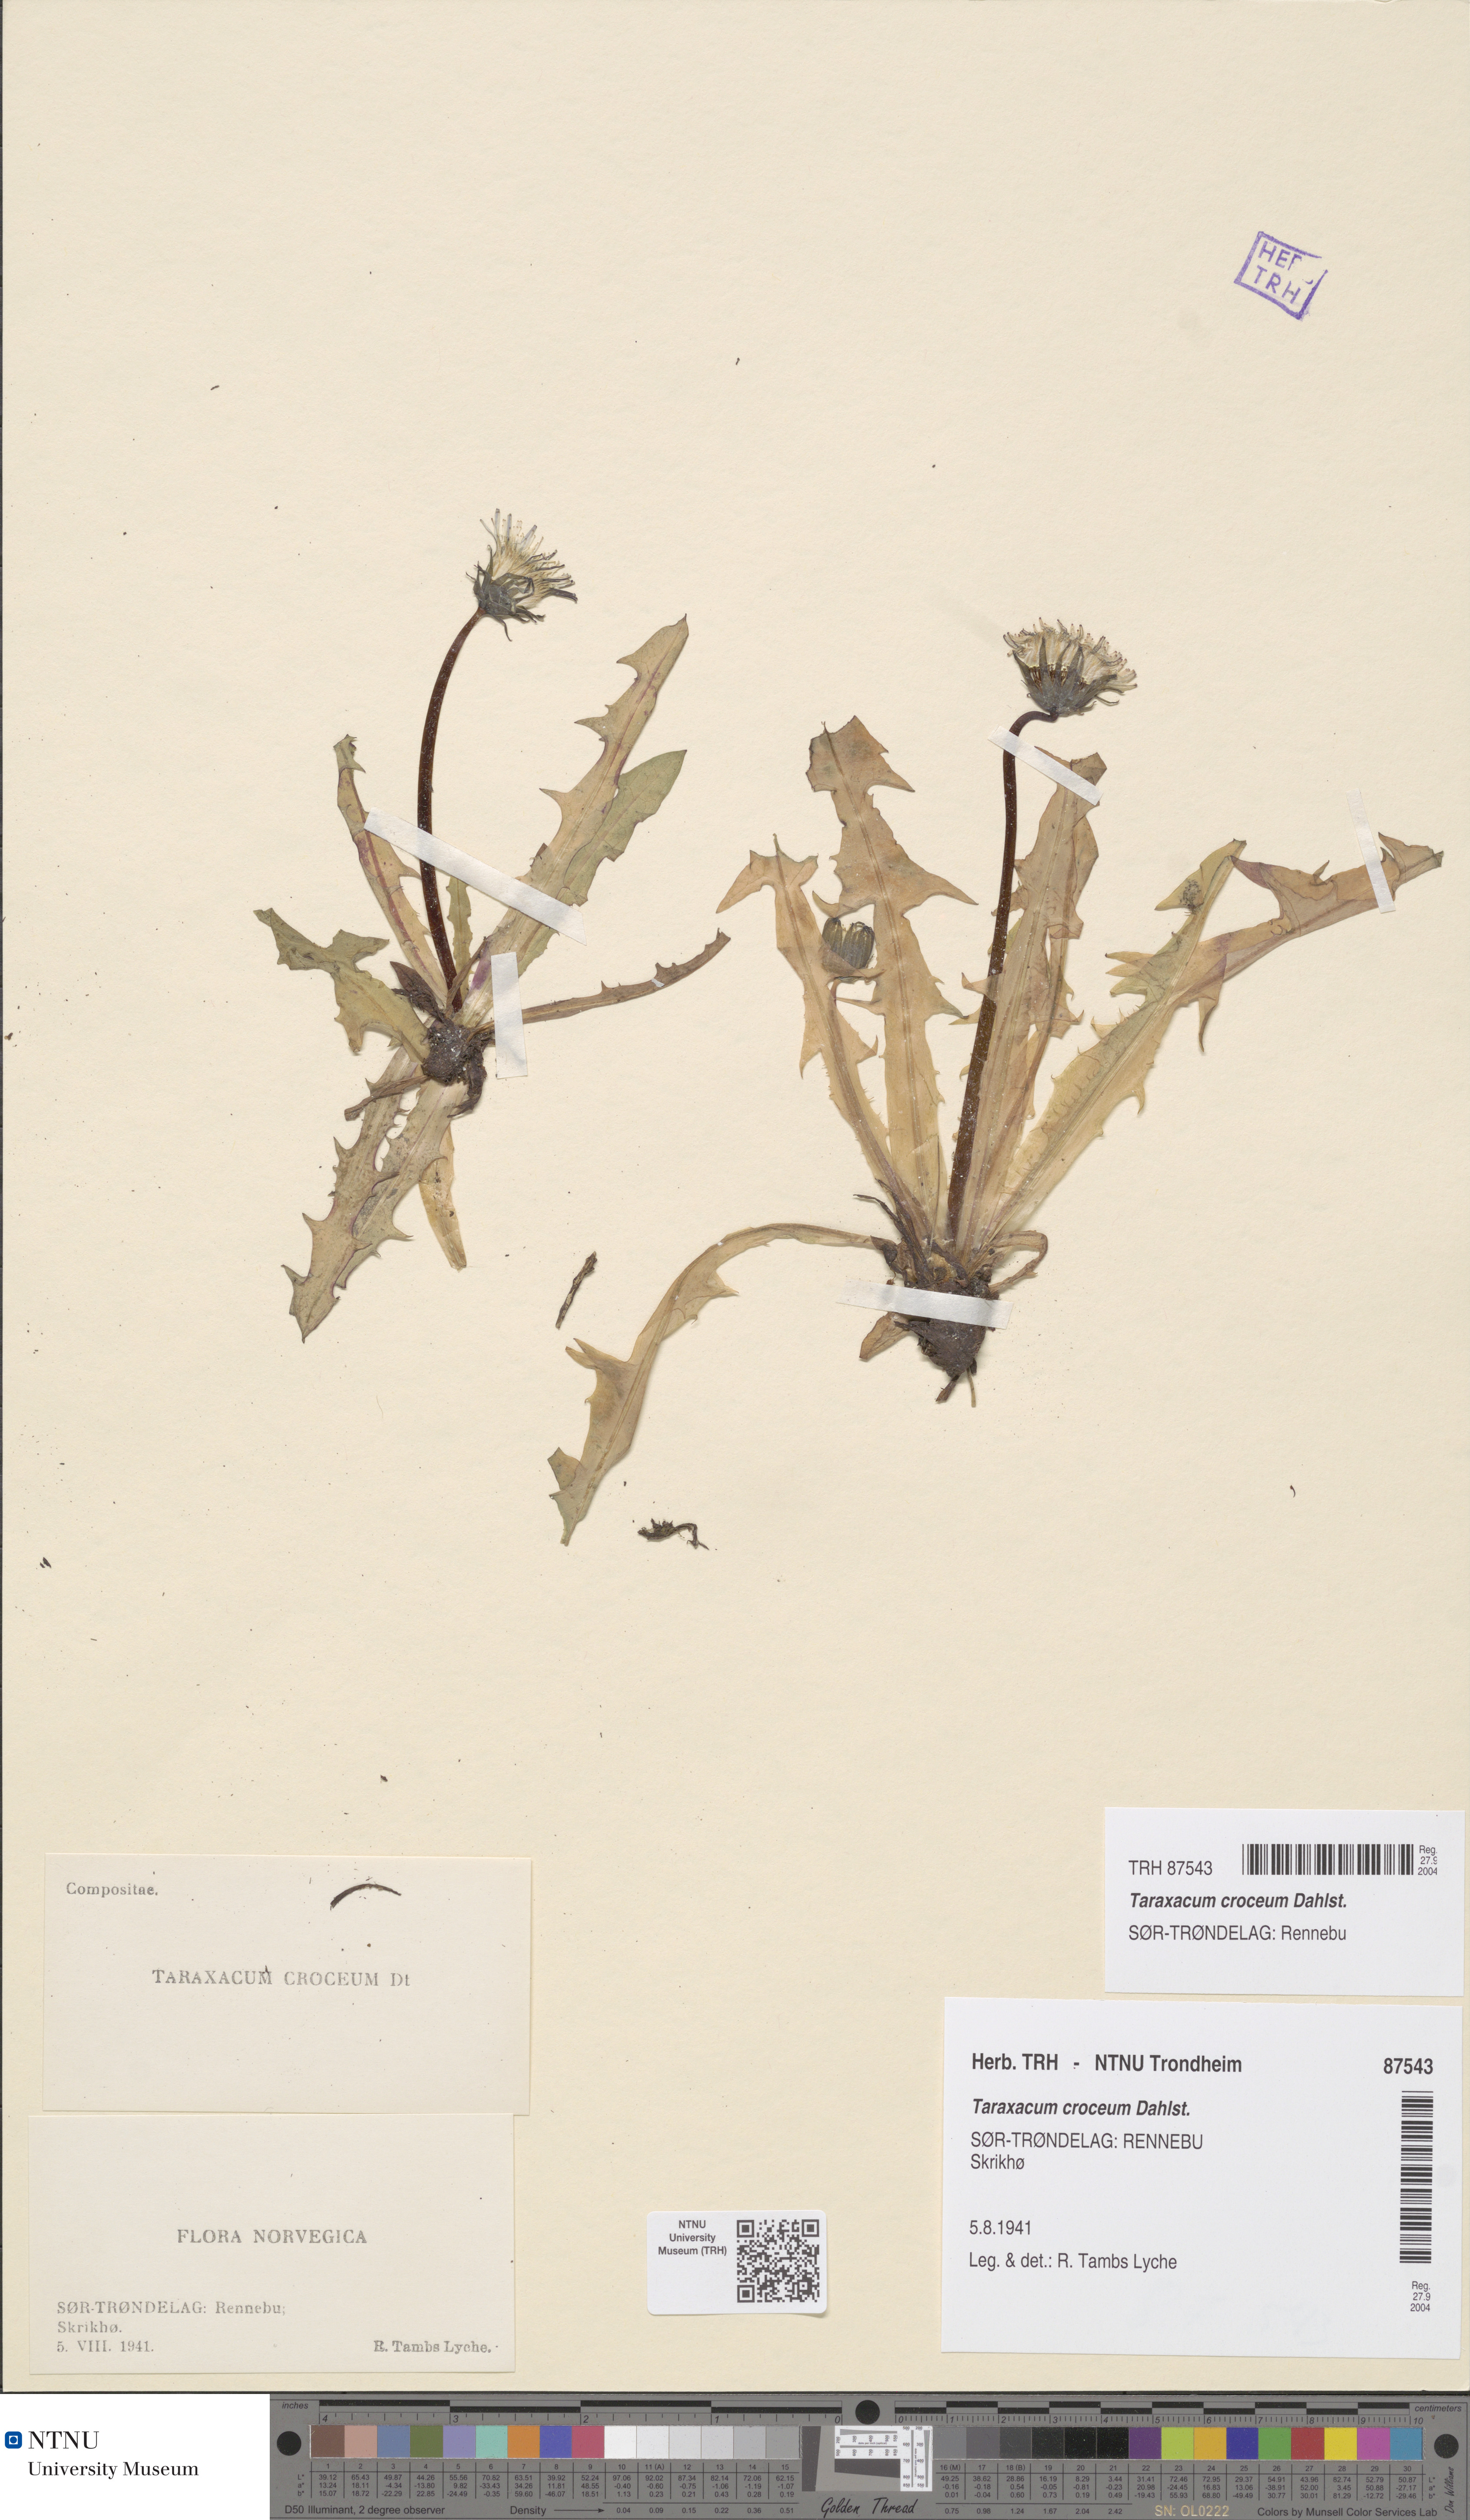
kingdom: Plantae
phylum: Tracheophyta
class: Magnoliopsida
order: Asterales
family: Asteraceae
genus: Taraxacum
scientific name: Taraxacum croceum
